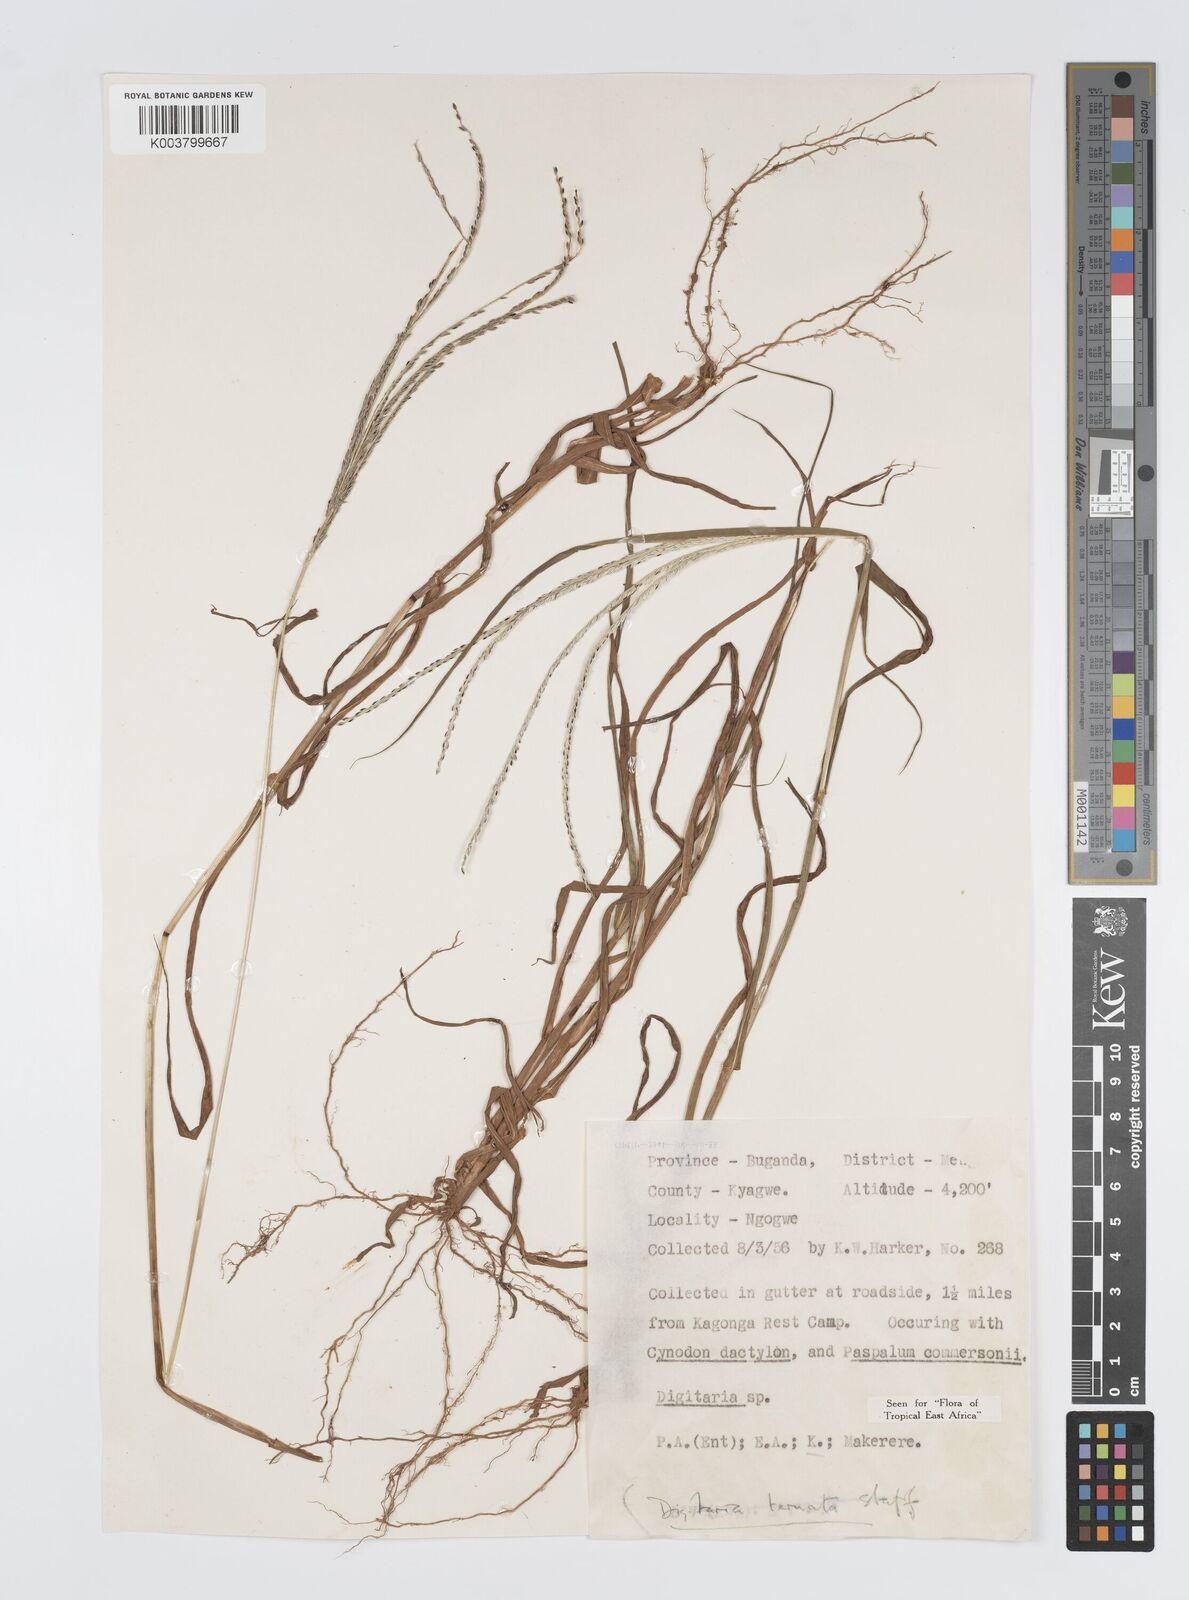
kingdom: Plantae
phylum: Tracheophyta
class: Liliopsida
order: Poales
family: Poaceae
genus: Digitaria
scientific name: Digitaria ternata
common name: Blackseed crabgrass
